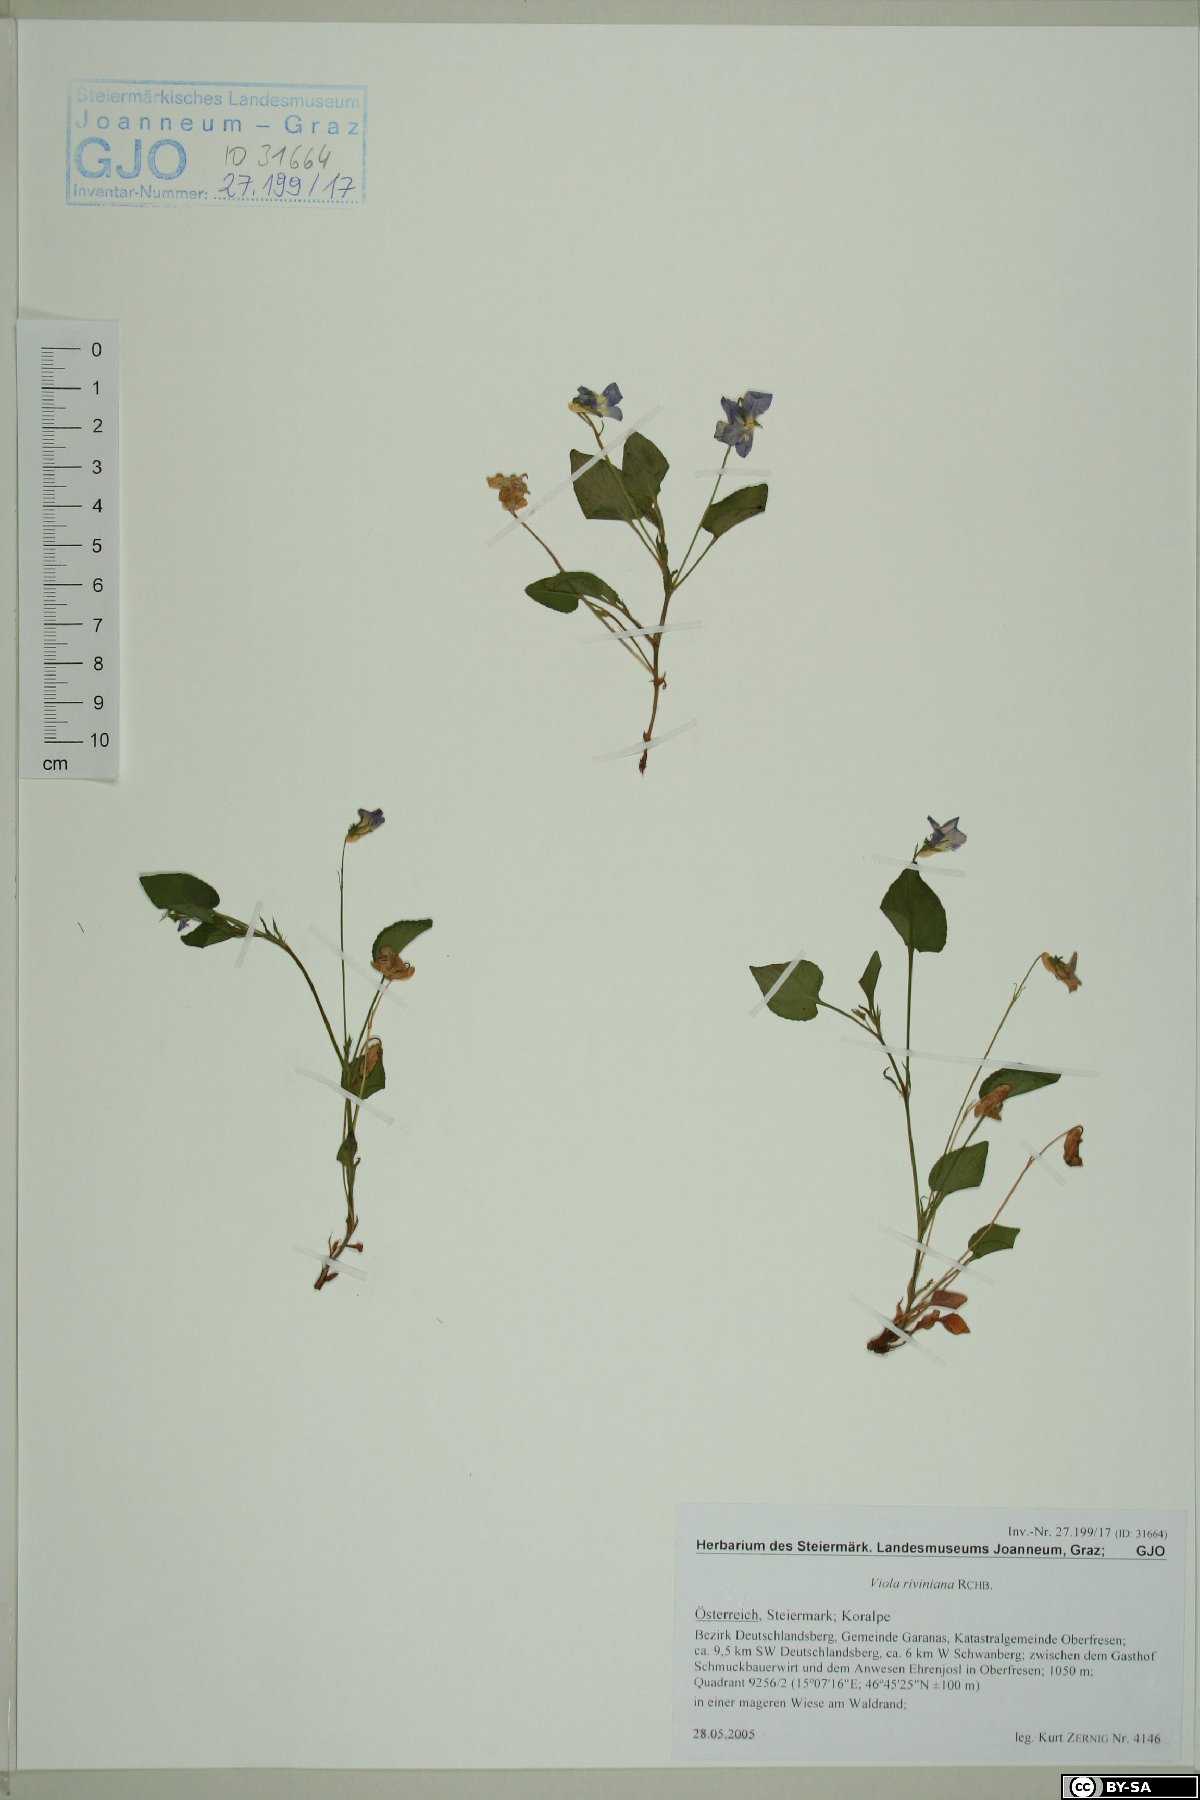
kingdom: Plantae
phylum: Tracheophyta
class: Magnoliopsida
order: Malpighiales
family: Violaceae
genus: Viola
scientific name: Viola riviniana
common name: Common dog-violet
